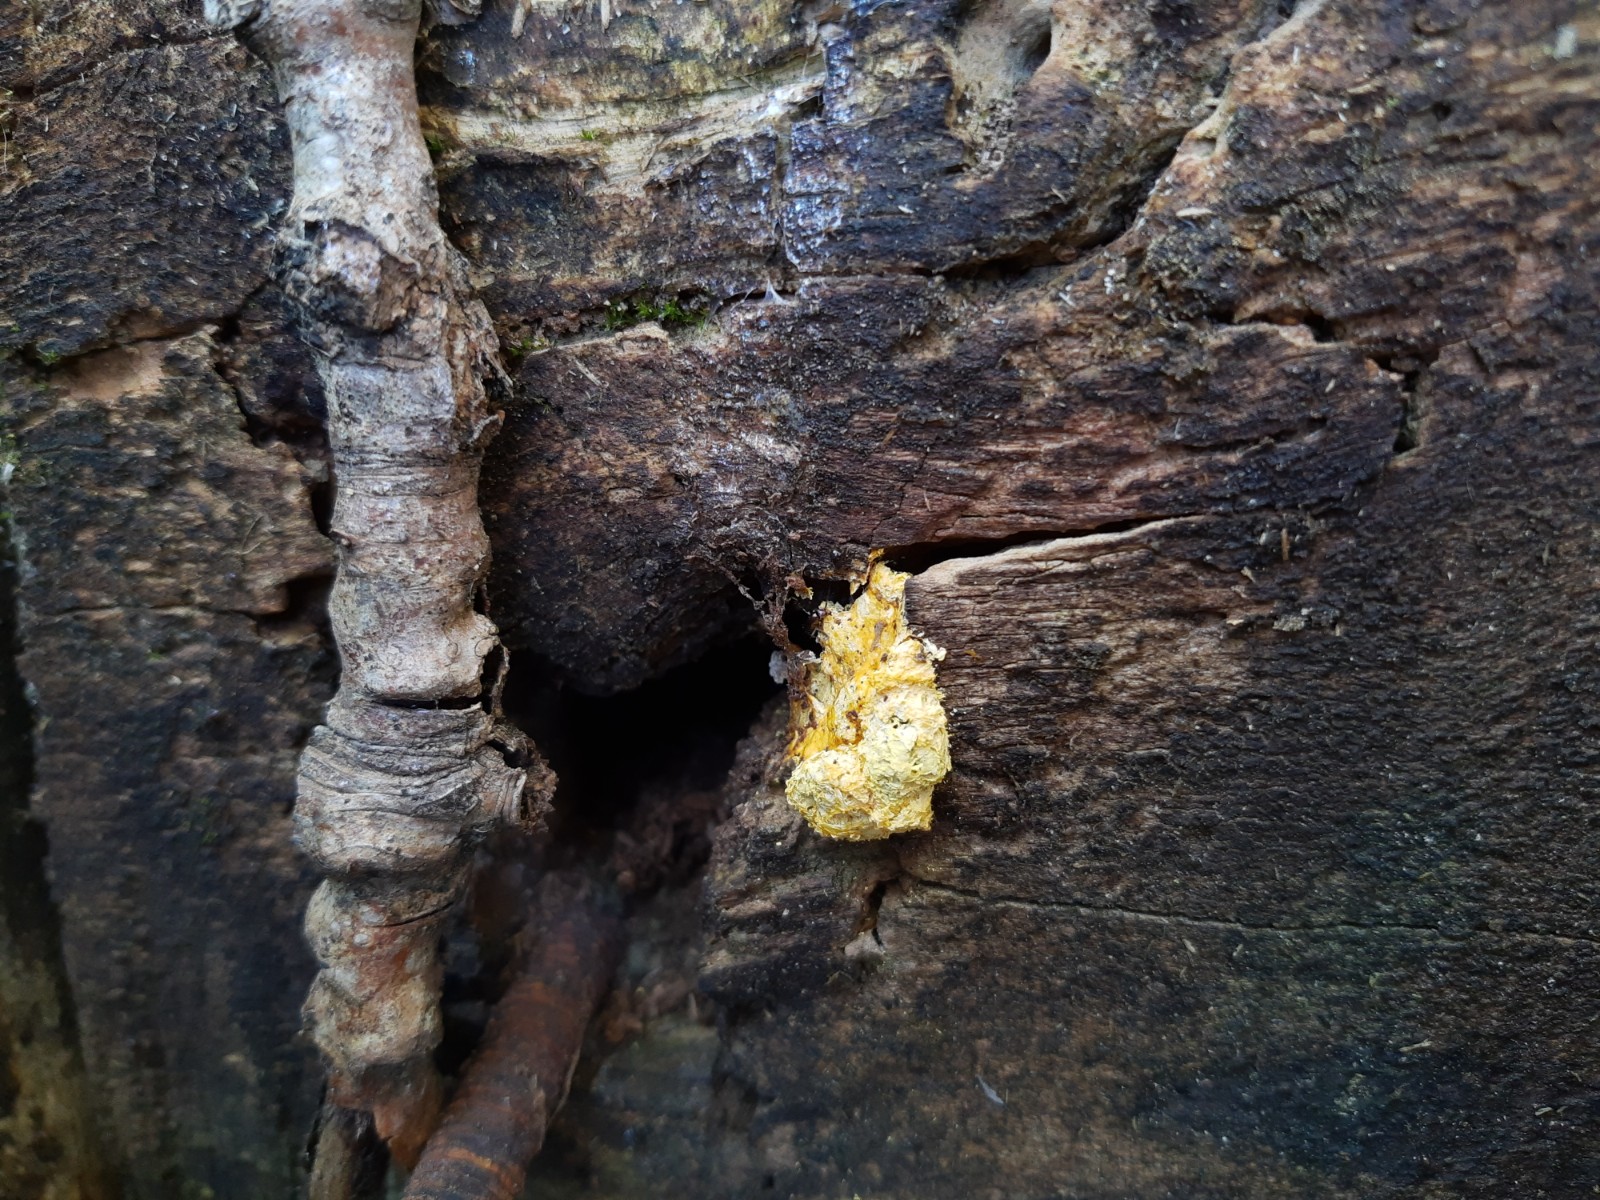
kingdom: Protozoa
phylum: Mycetozoa
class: Myxomycetes
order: Physarales
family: Physaraceae
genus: Fuligo
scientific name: Fuligo septica
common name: gul troldsmør
